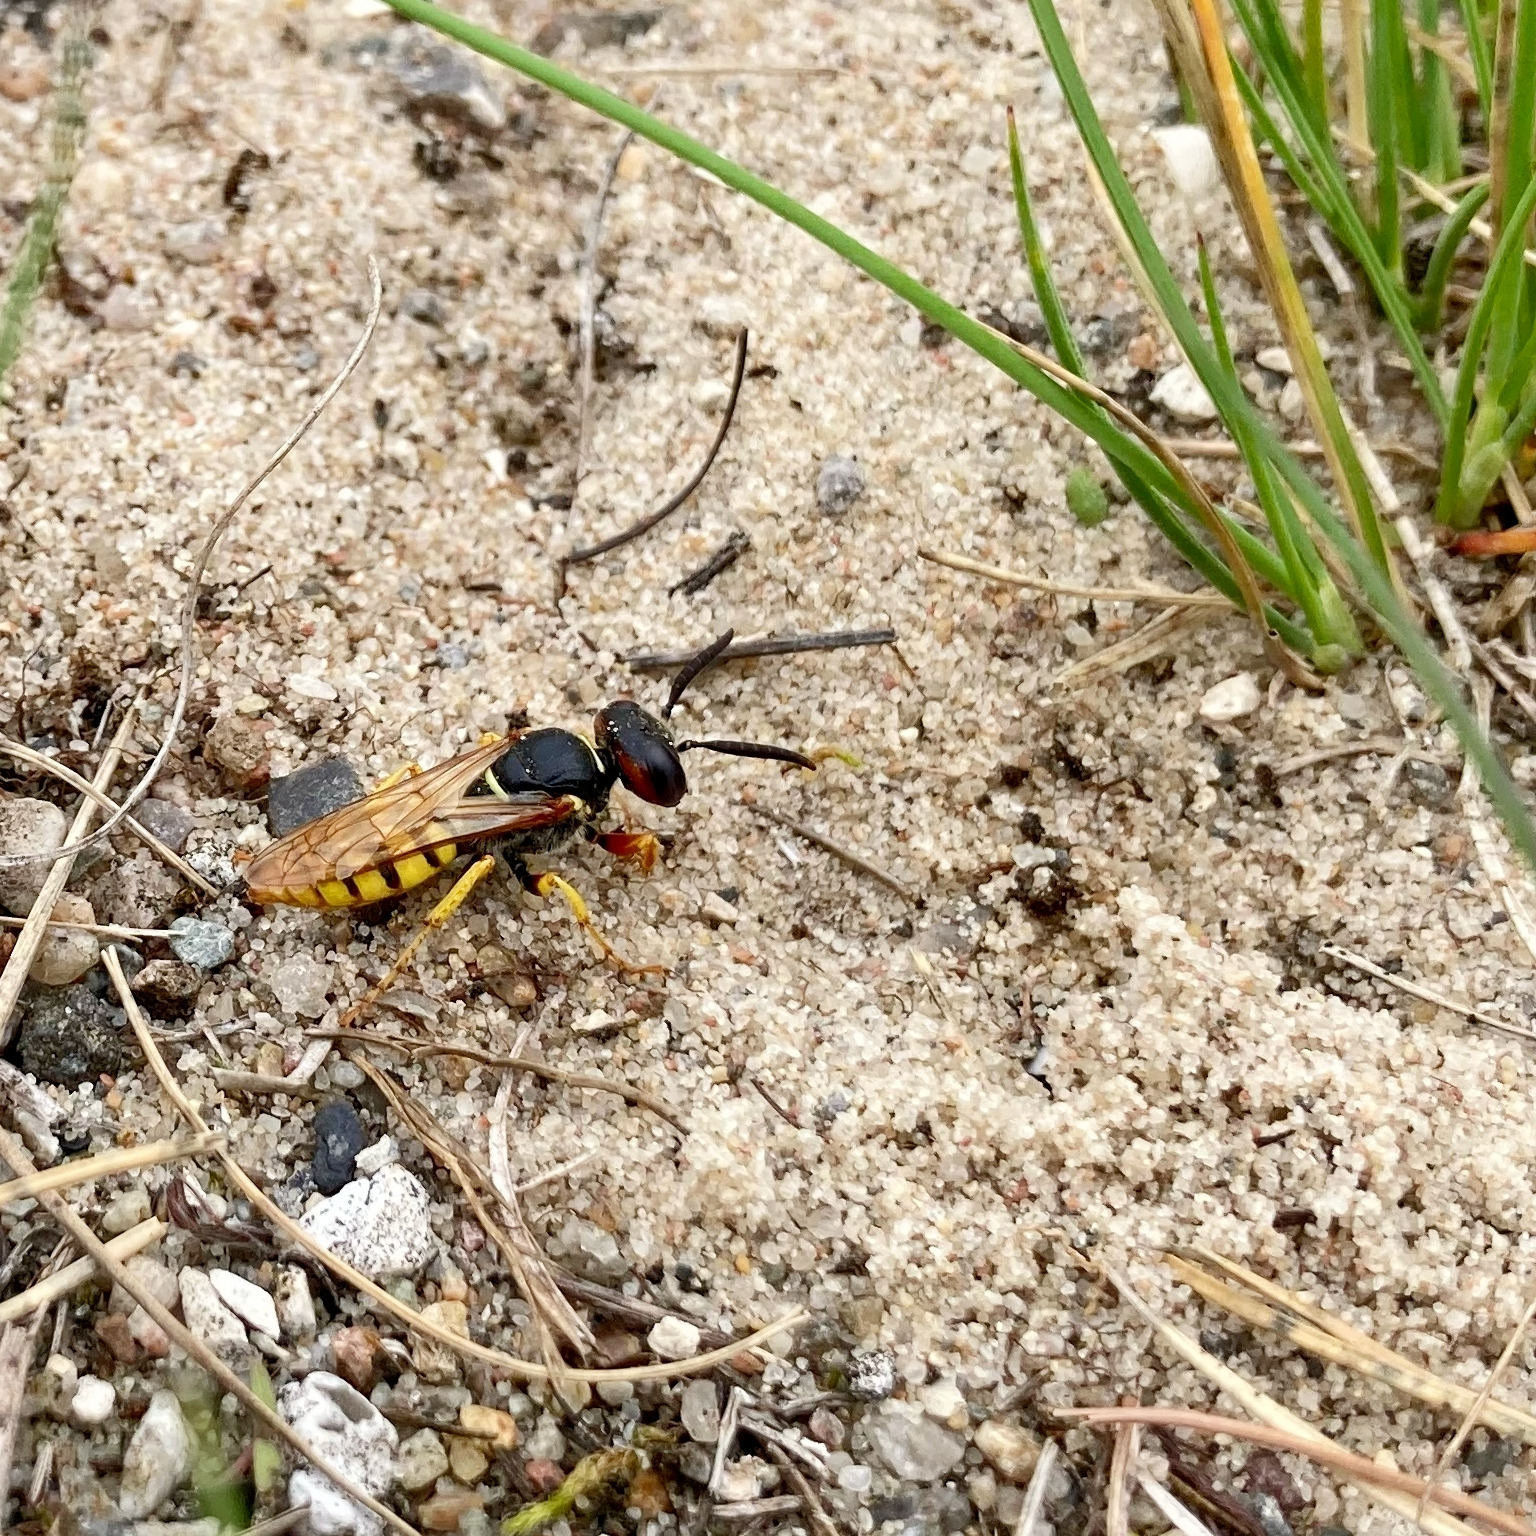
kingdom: Animalia
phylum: Arthropoda
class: Insecta
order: Hymenoptera
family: Crabronidae
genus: Philanthus
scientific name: Philanthus triangulum
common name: Biulv
